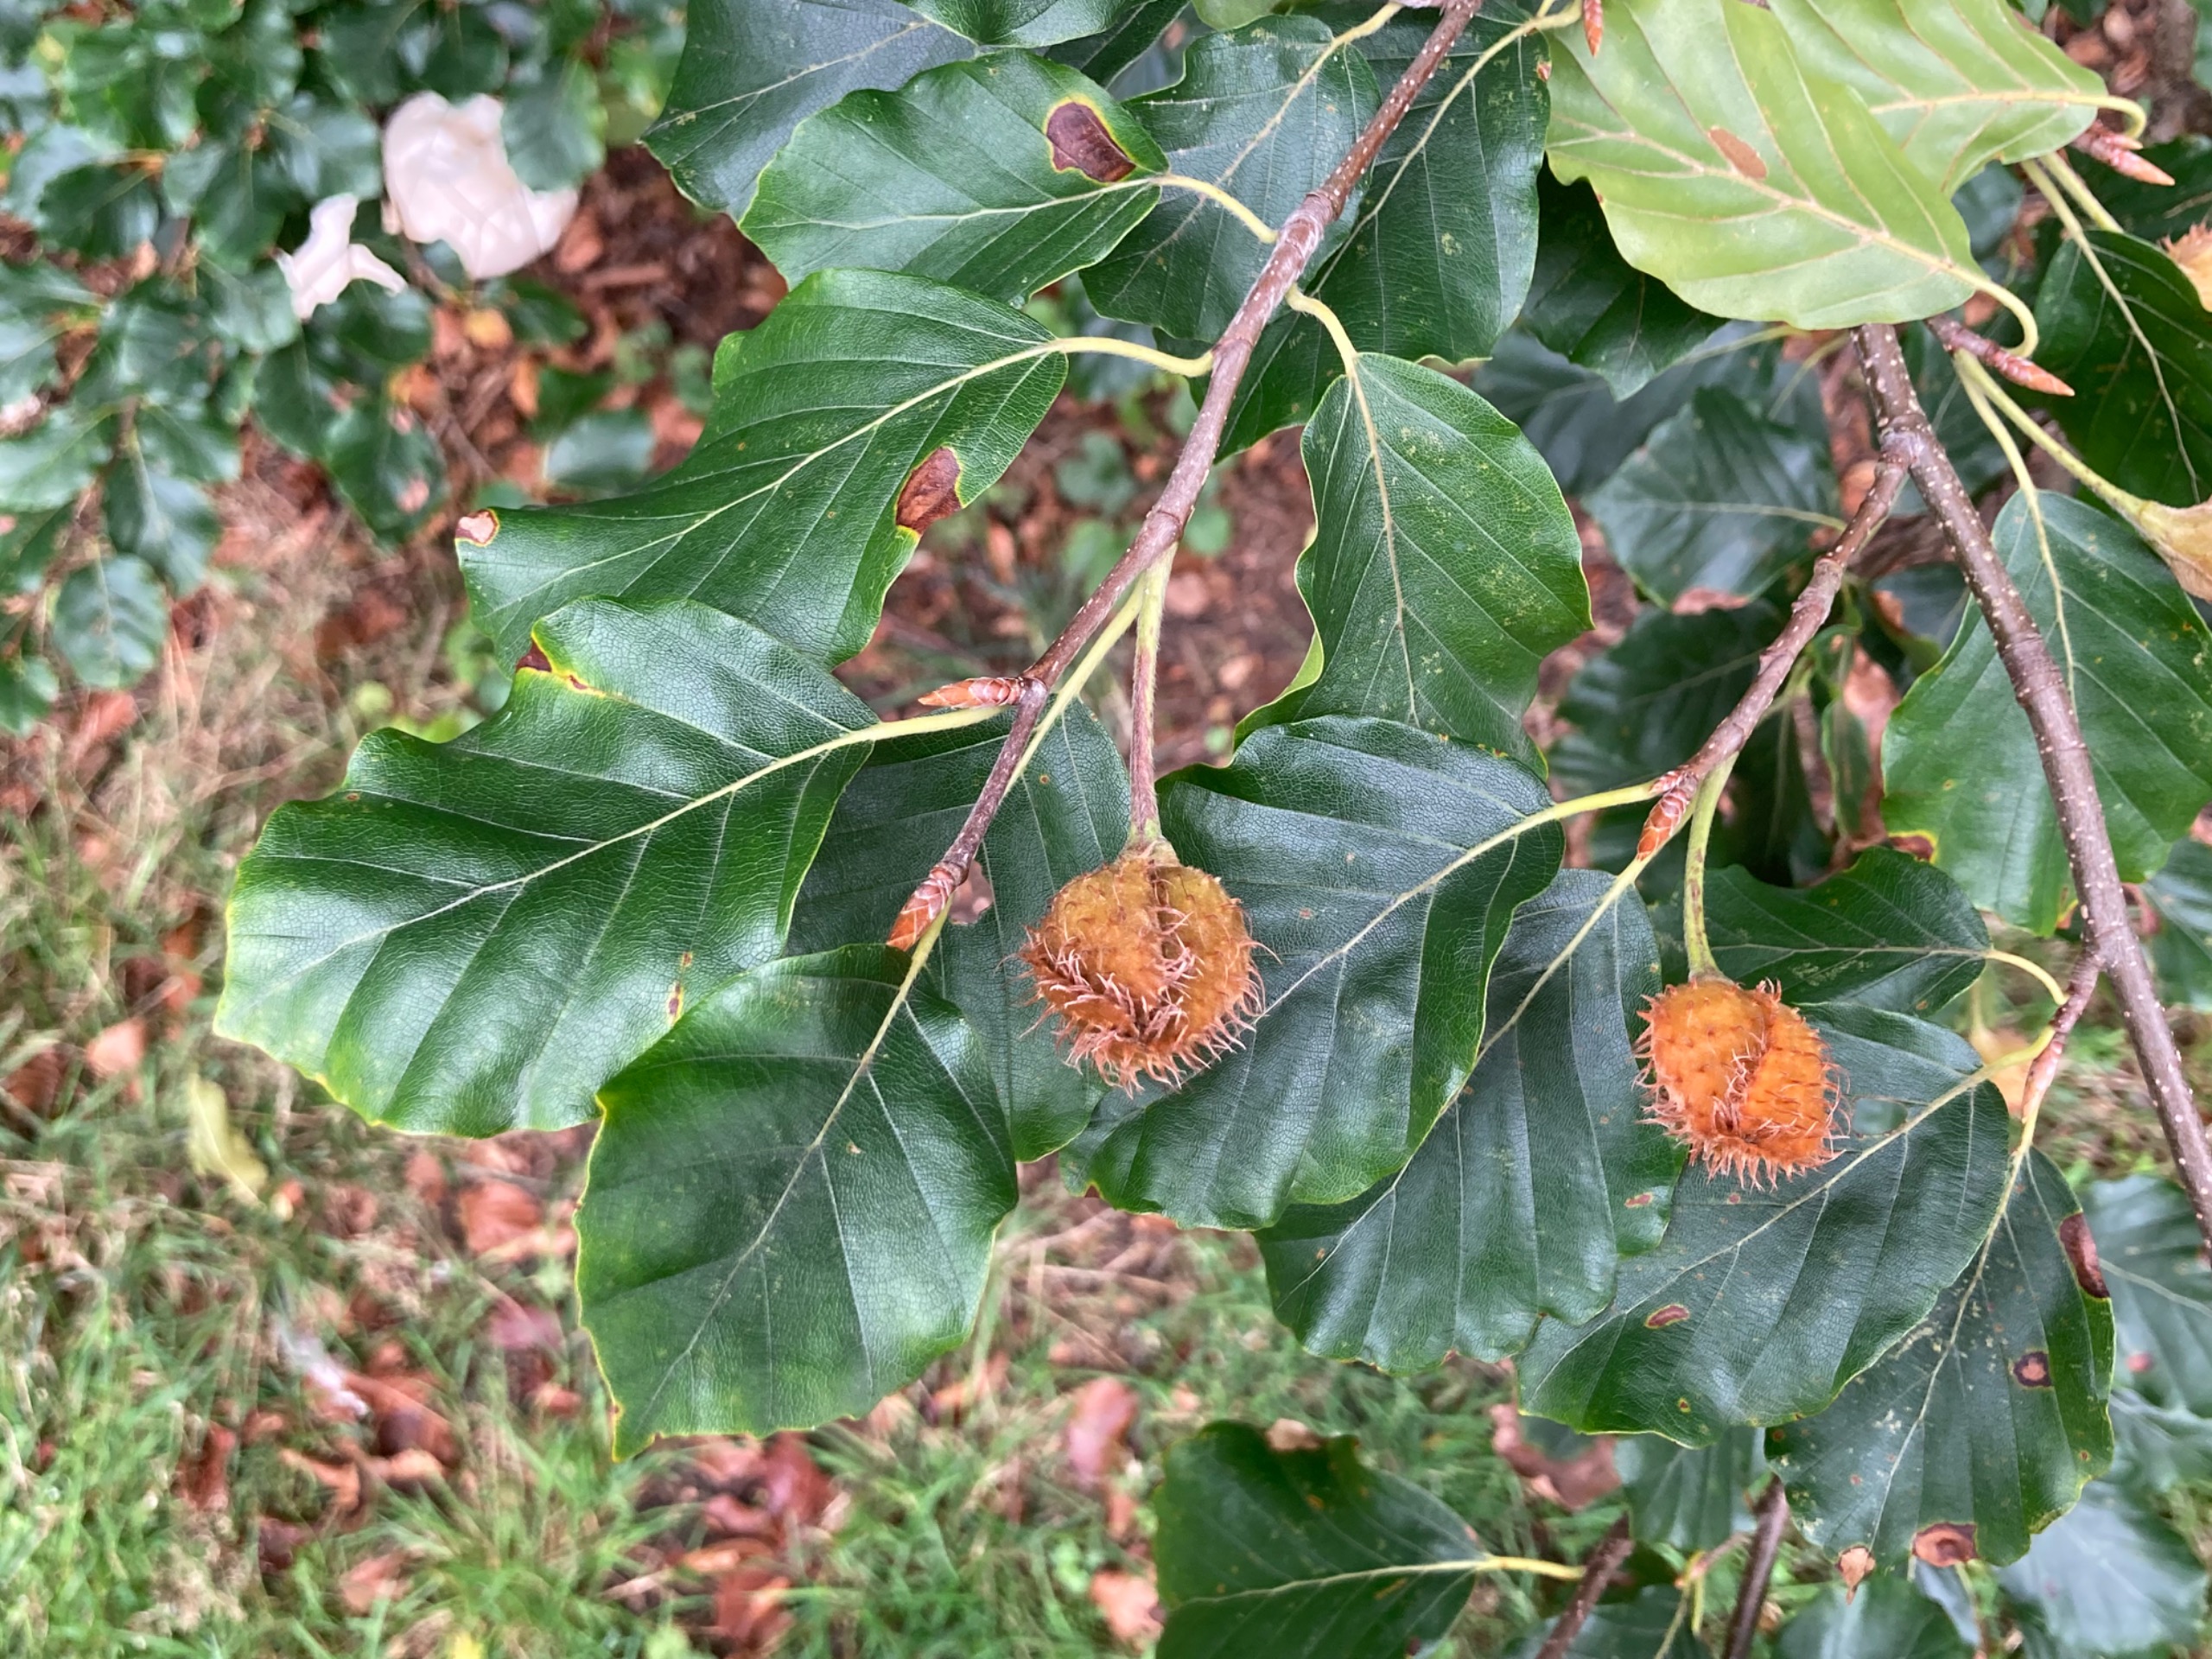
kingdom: Plantae
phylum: Tracheophyta
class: Magnoliopsida
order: Fagales
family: Fagaceae
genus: Fagus
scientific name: Fagus sylvatica
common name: Bøg
